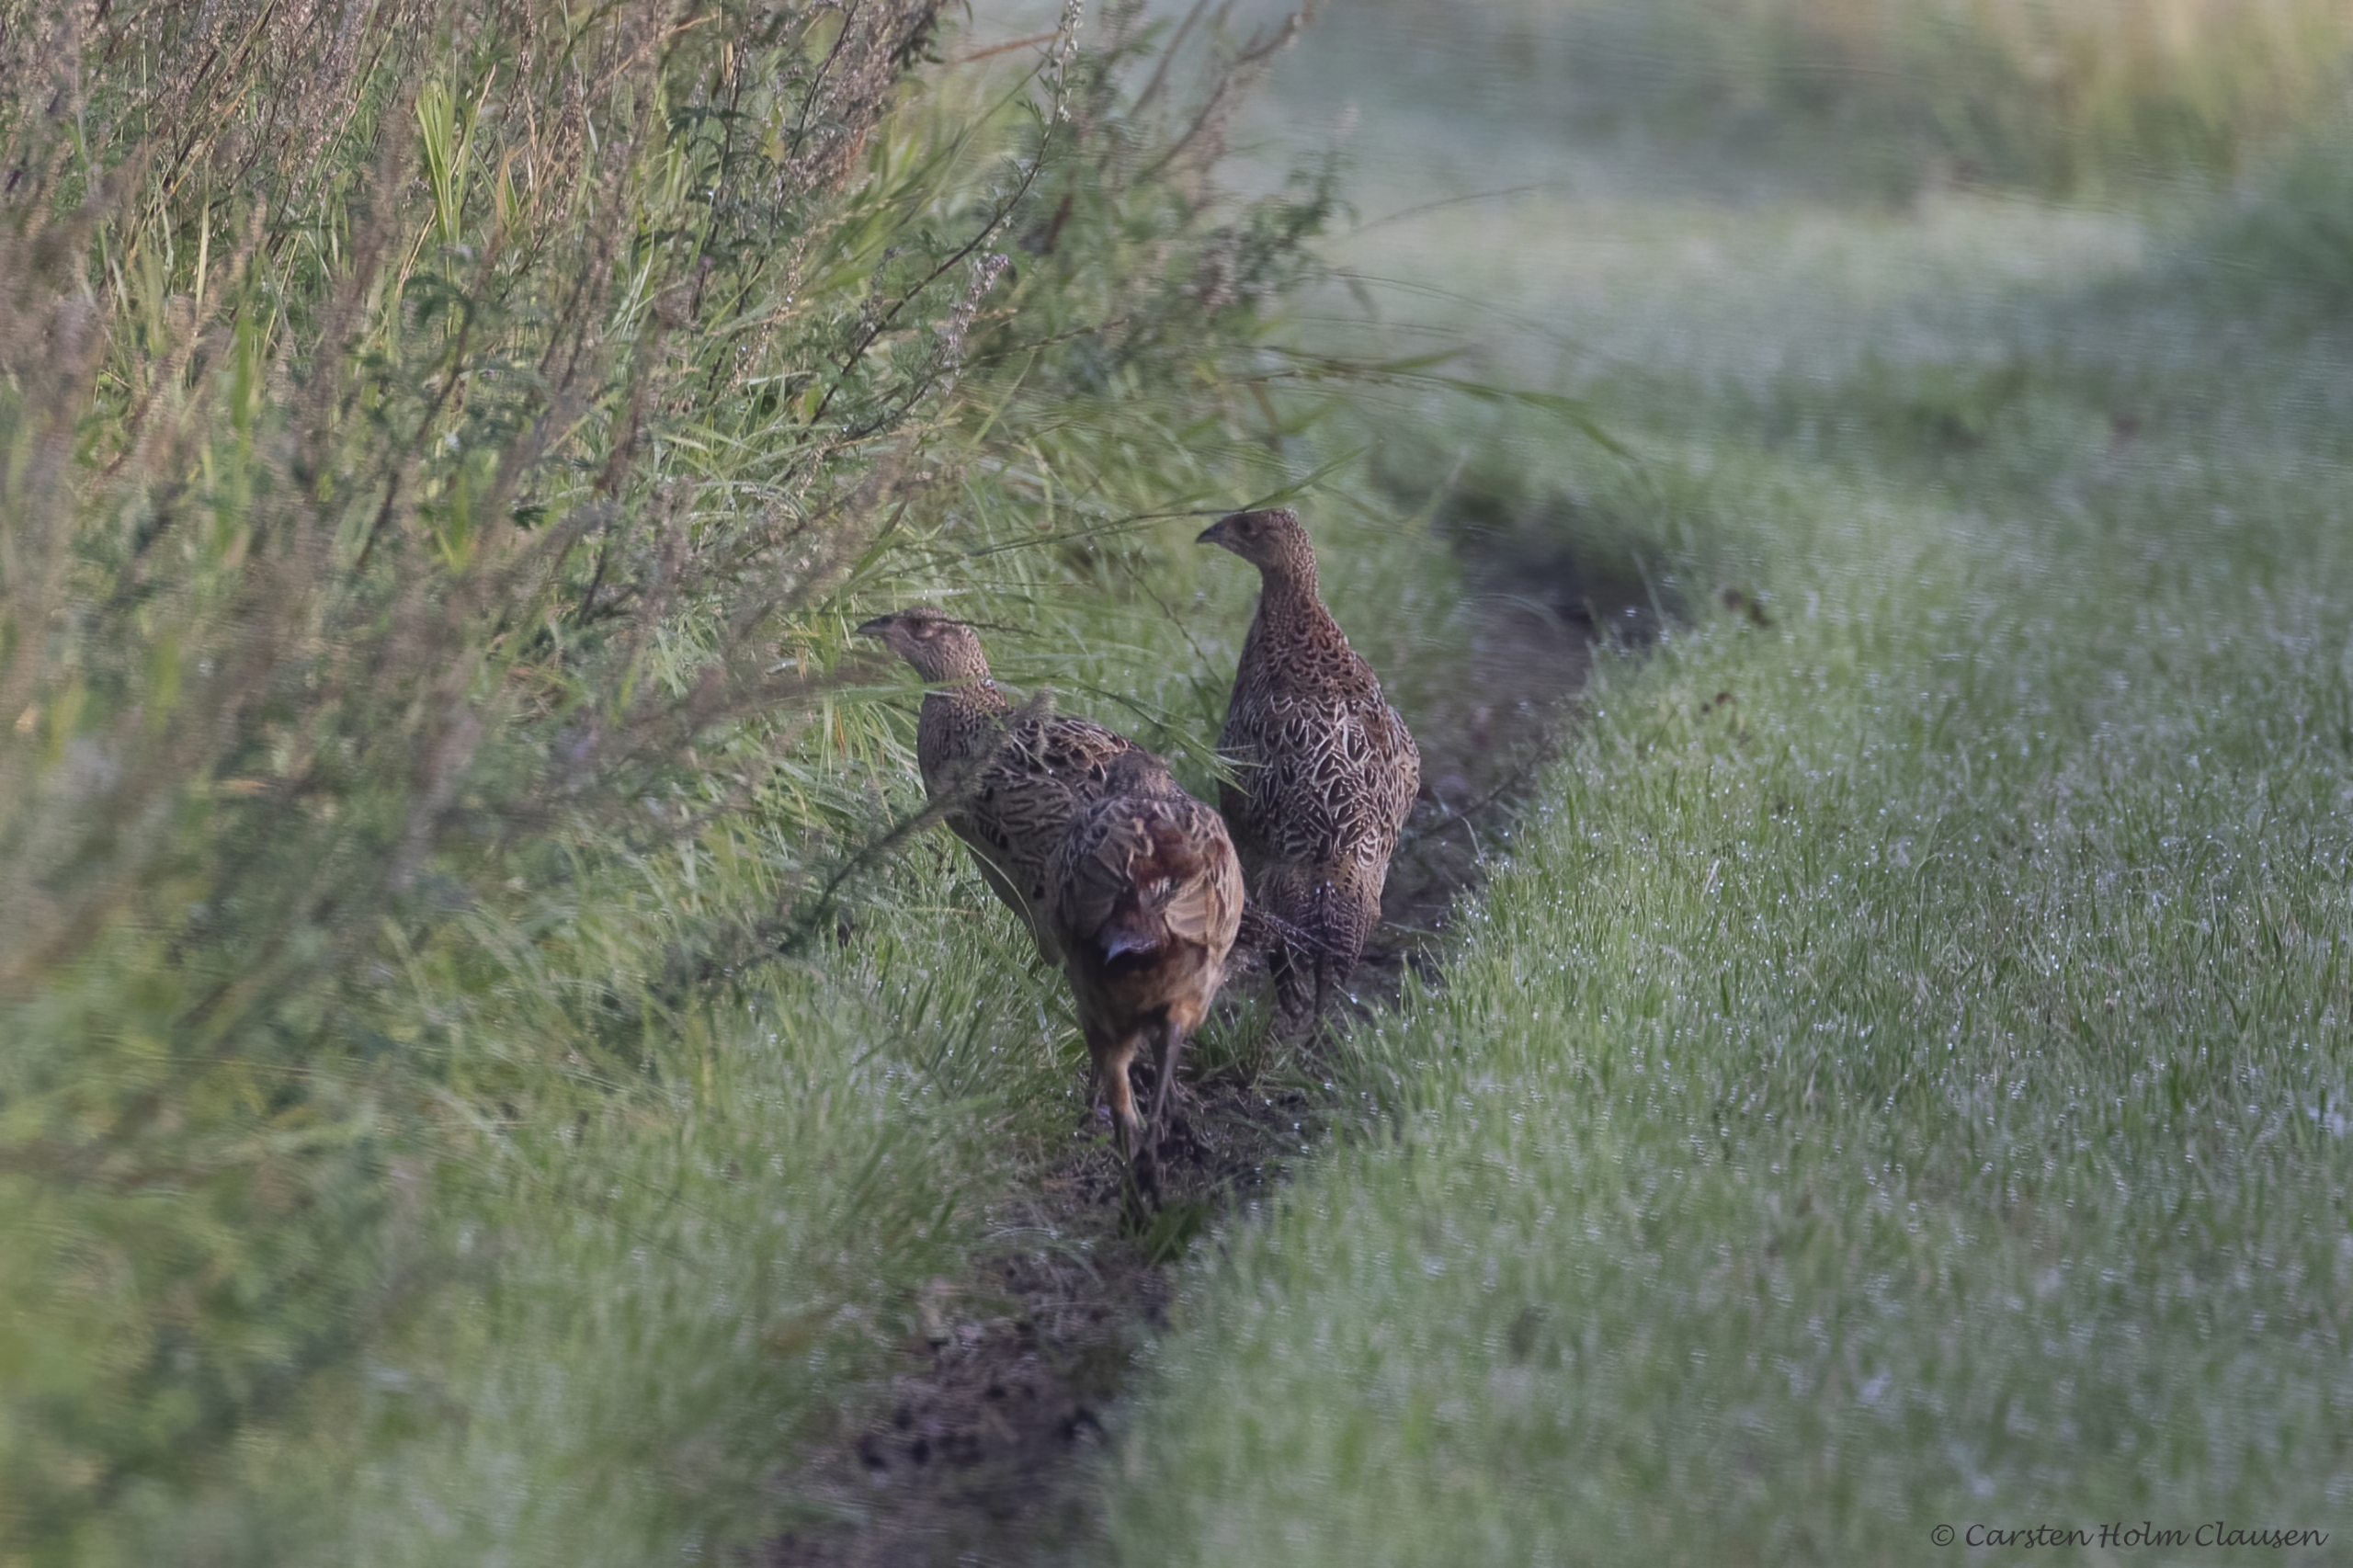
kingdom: Animalia
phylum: Chordata
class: Aves
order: Galliformes
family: Phasianidae
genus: Phasianus
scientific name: Phasianus colchicus
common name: Fasan
